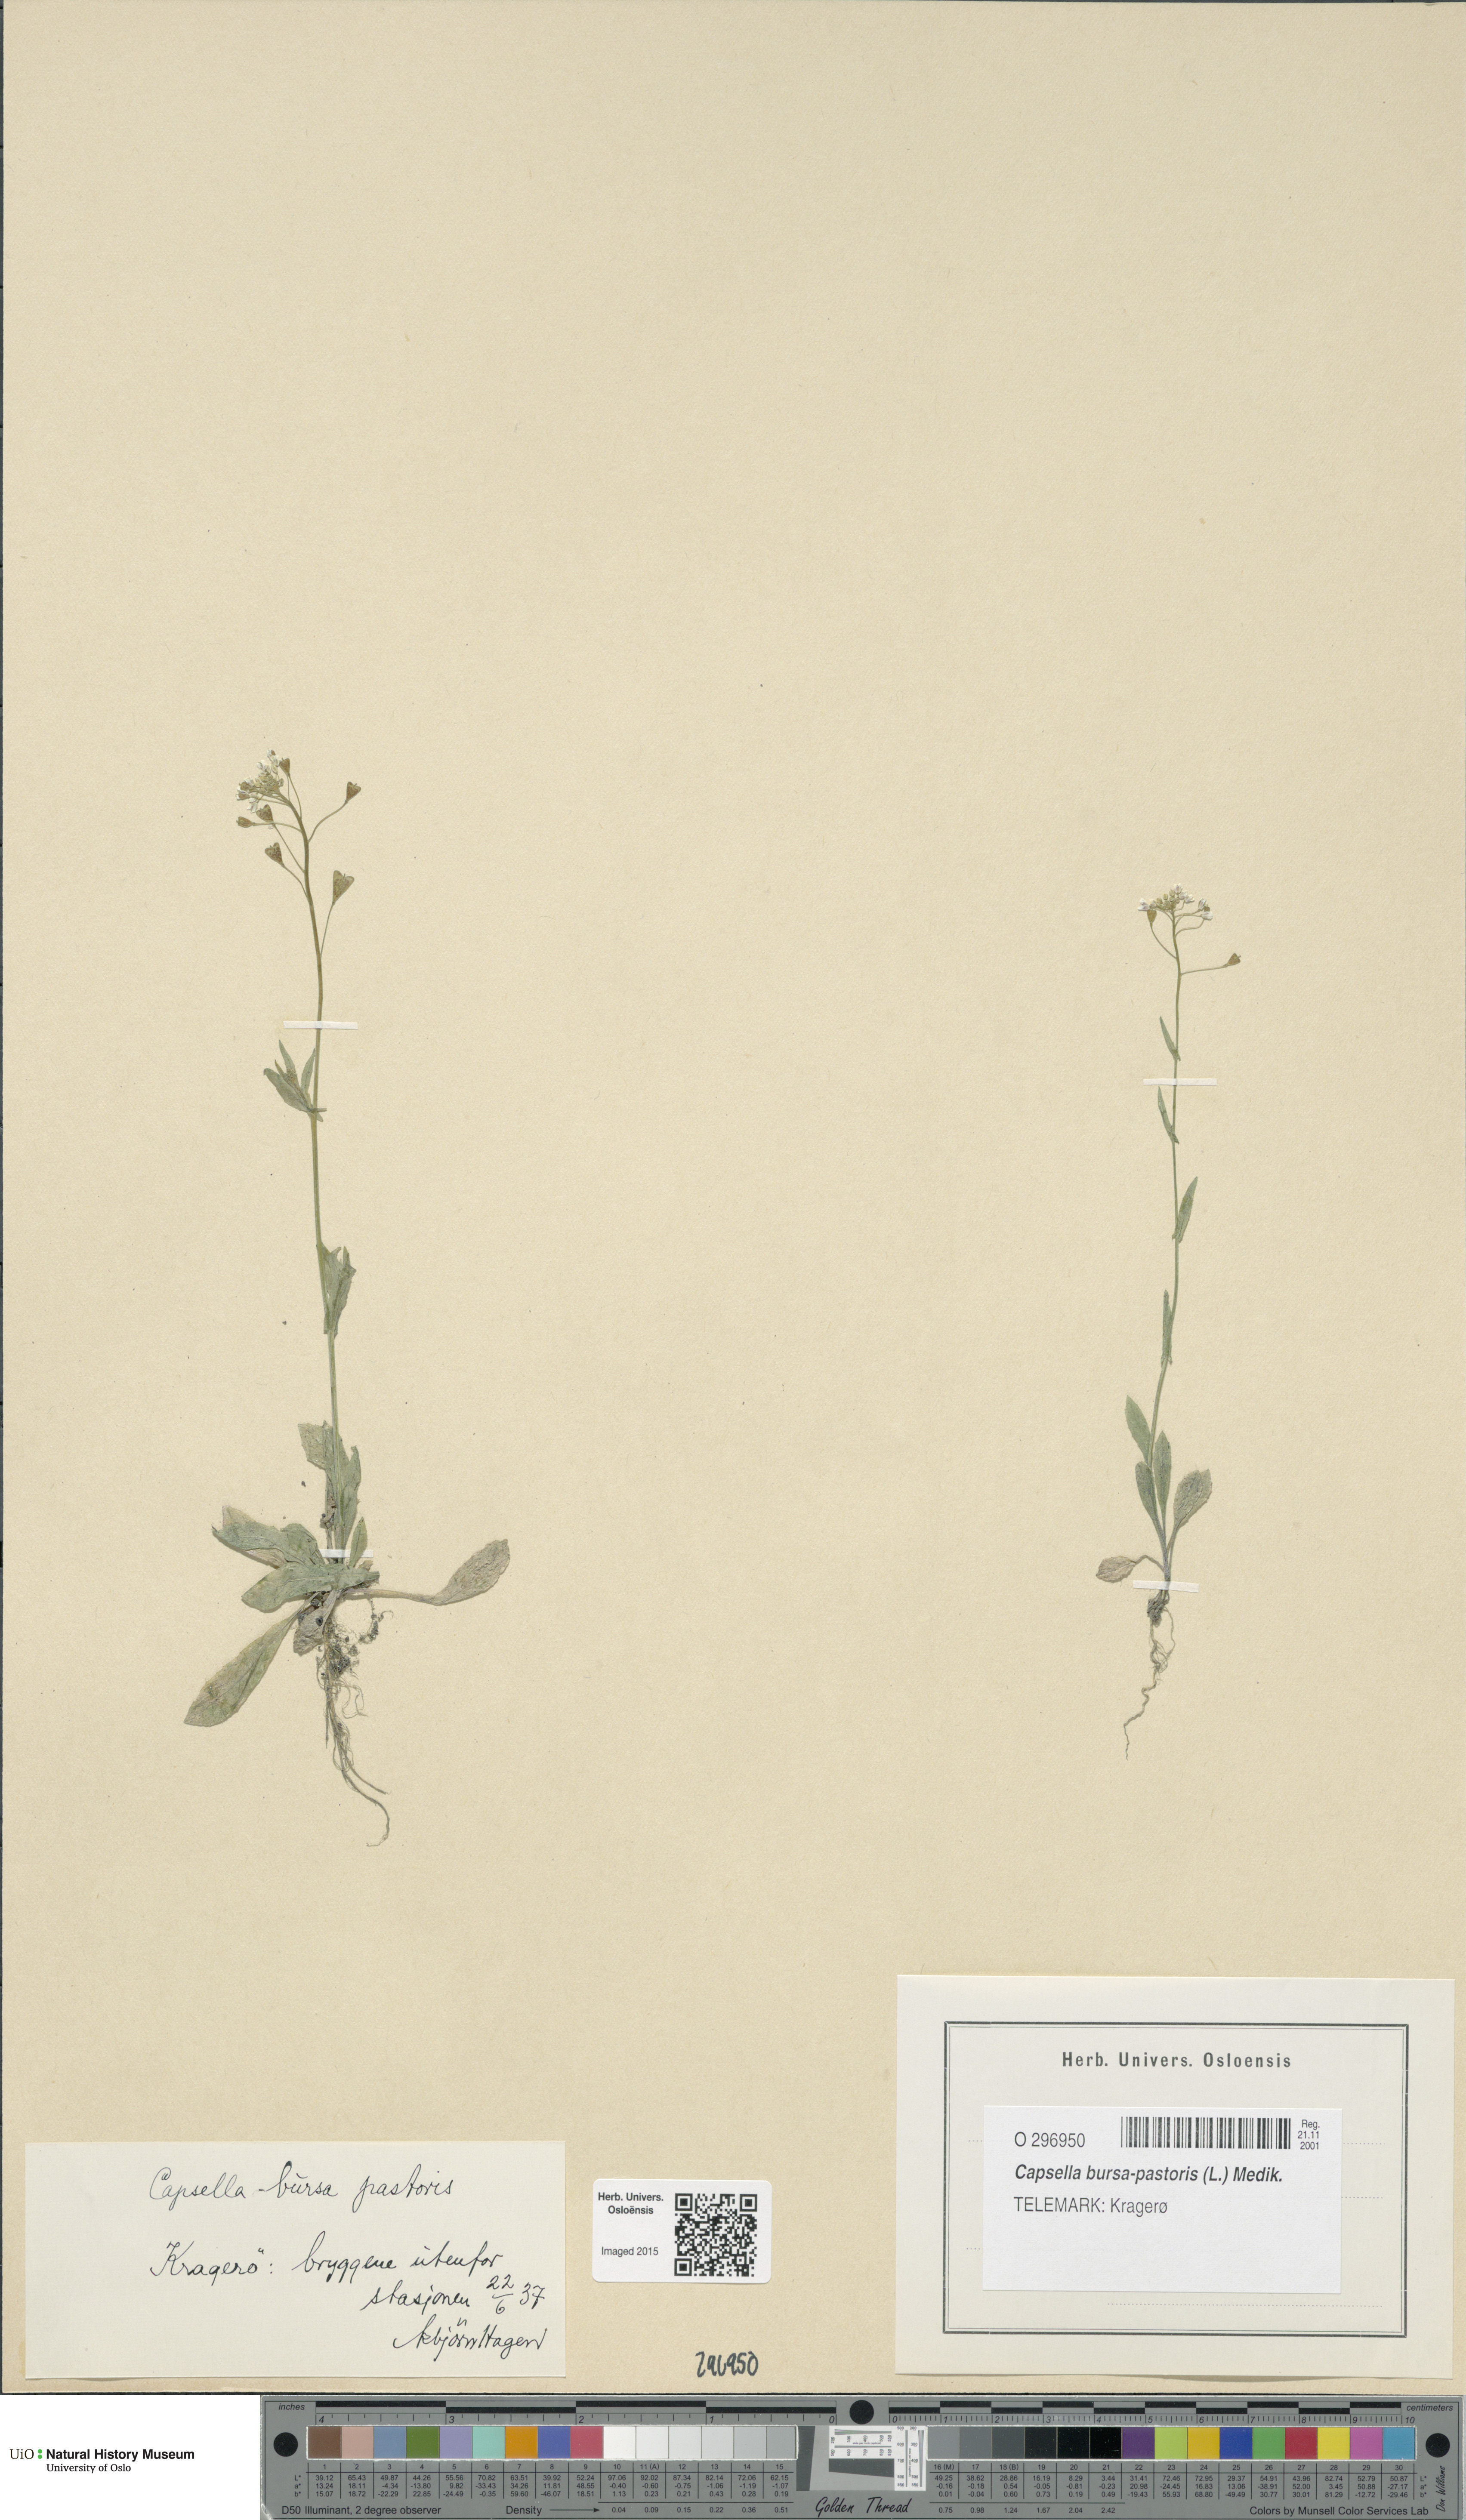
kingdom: Plantae
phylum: Tracheophyta
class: Magnoliopsida
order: Brassicales
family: Brassicaceae
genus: Capsella
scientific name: Capsella bursa-pastoris
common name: Shepherd's purse
